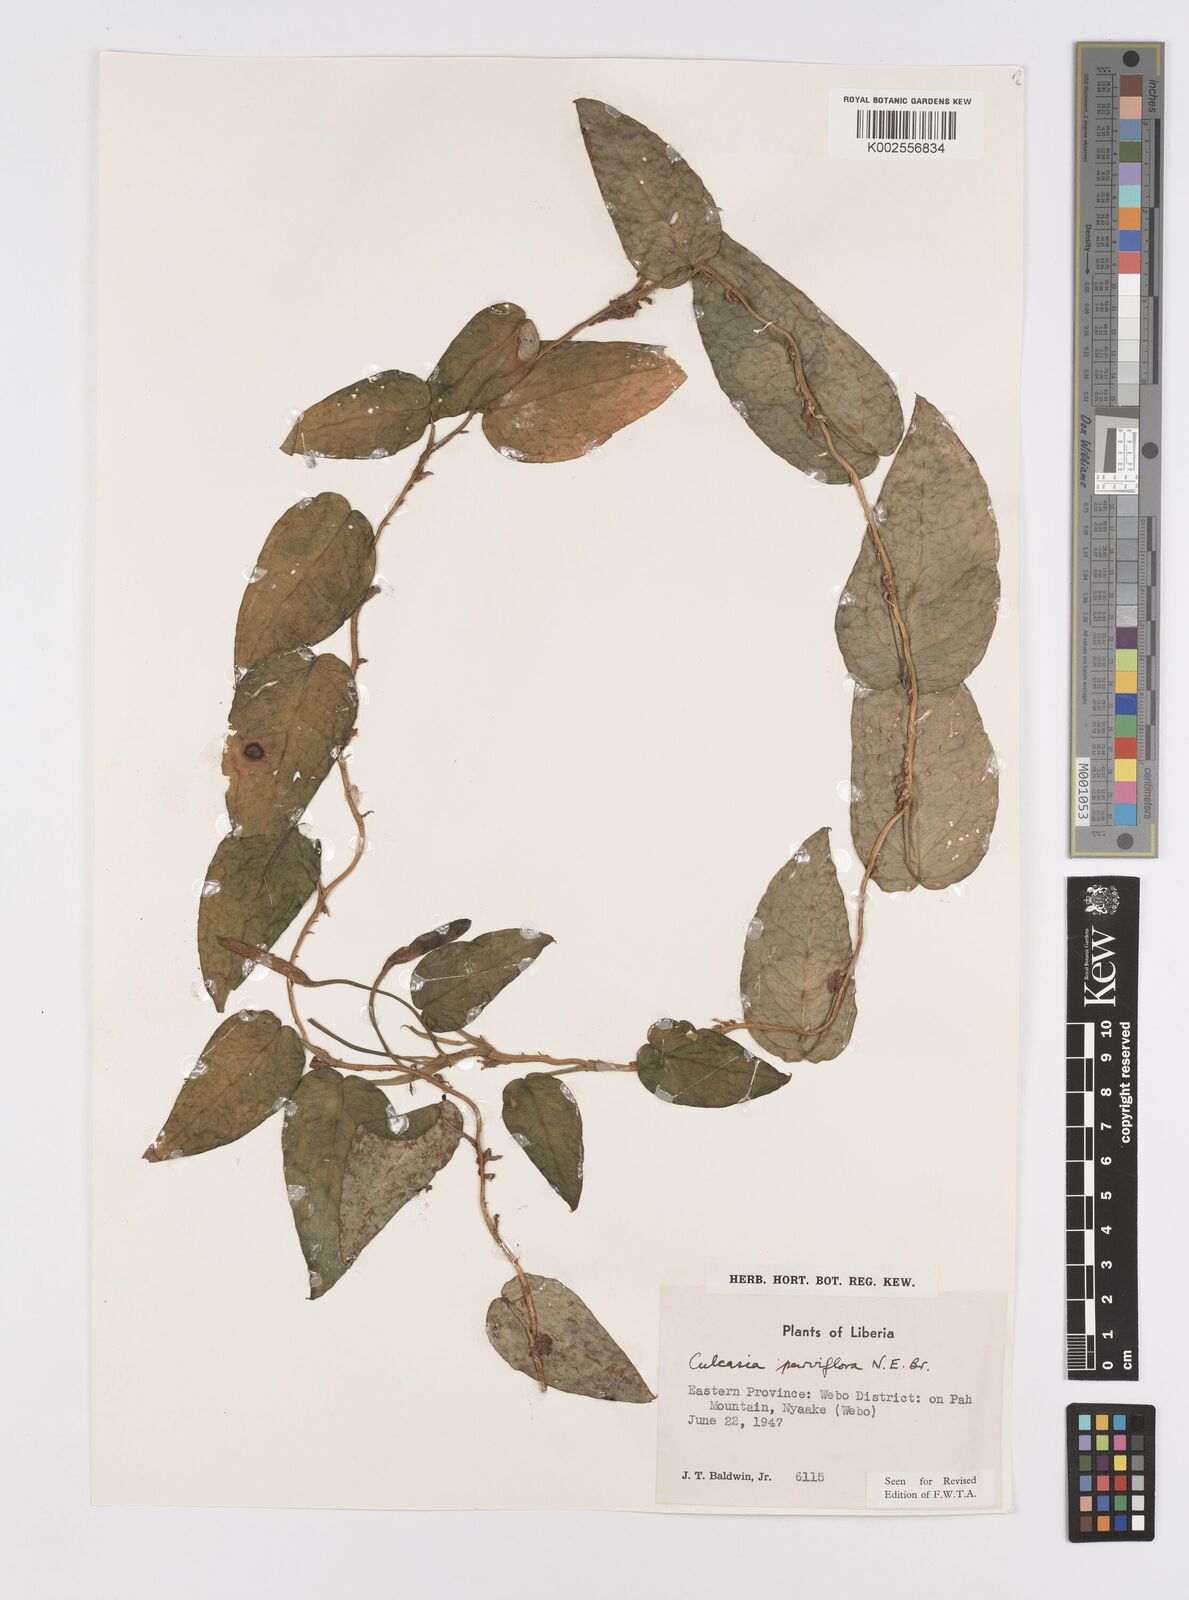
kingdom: Plantae
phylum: Tracheophyta
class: Liliopsida
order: Alismatales
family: Araceae
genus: Culcasia
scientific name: Culcasia parviflora
